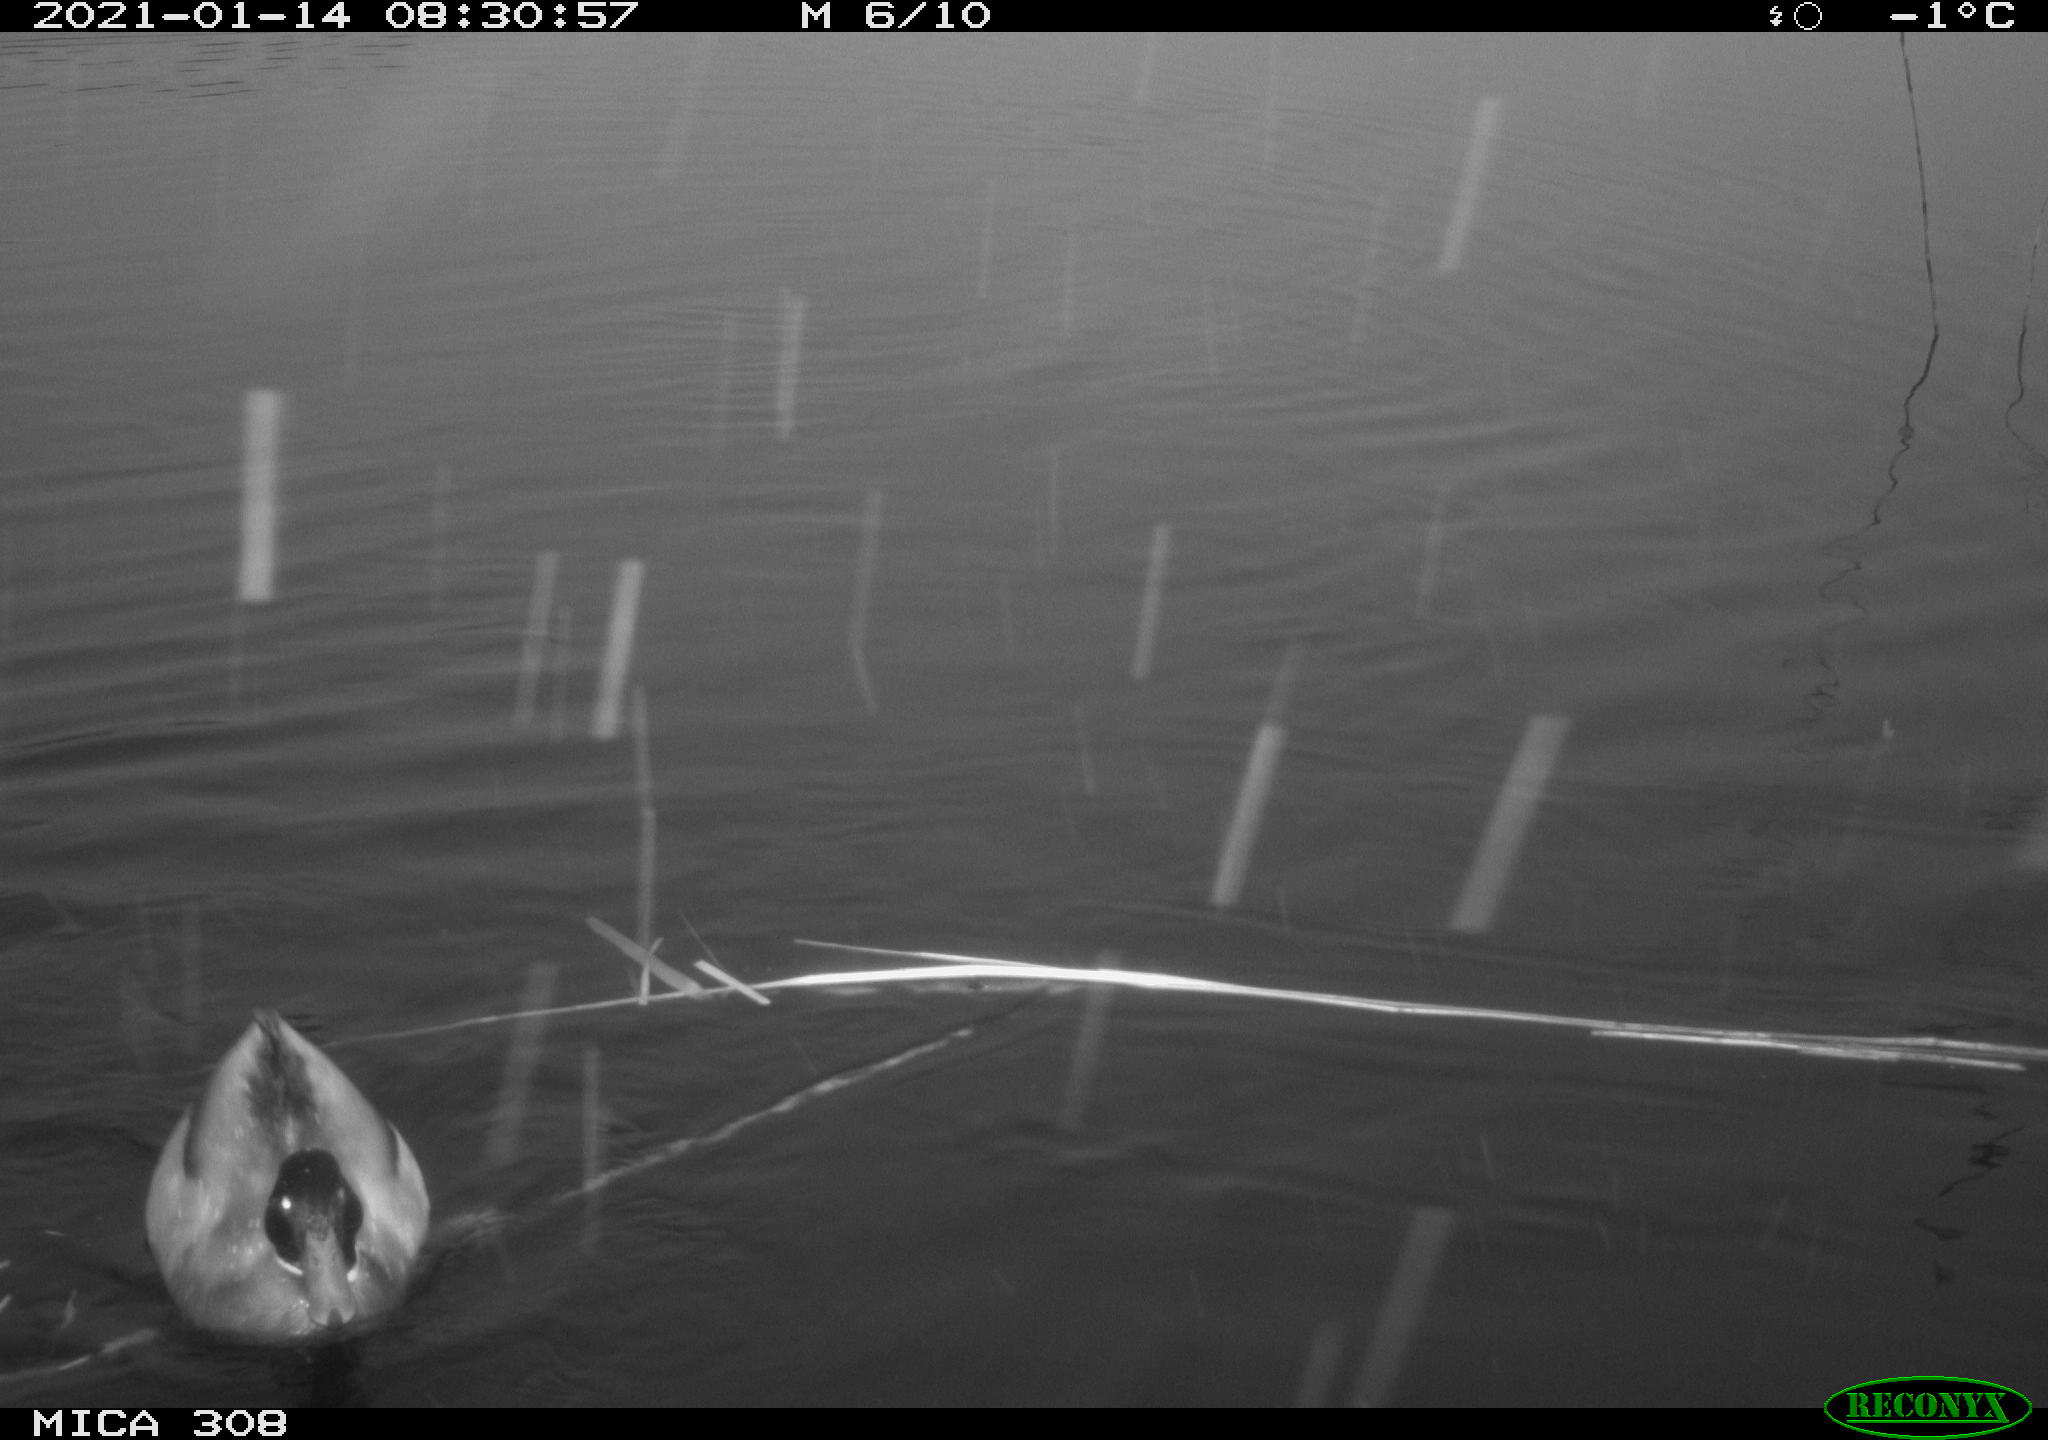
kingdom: Animalia
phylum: Chordata
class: Aves
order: Anseriformes
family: Anatidae
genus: Anas
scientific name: Anas platyrhynchos
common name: Mallard
